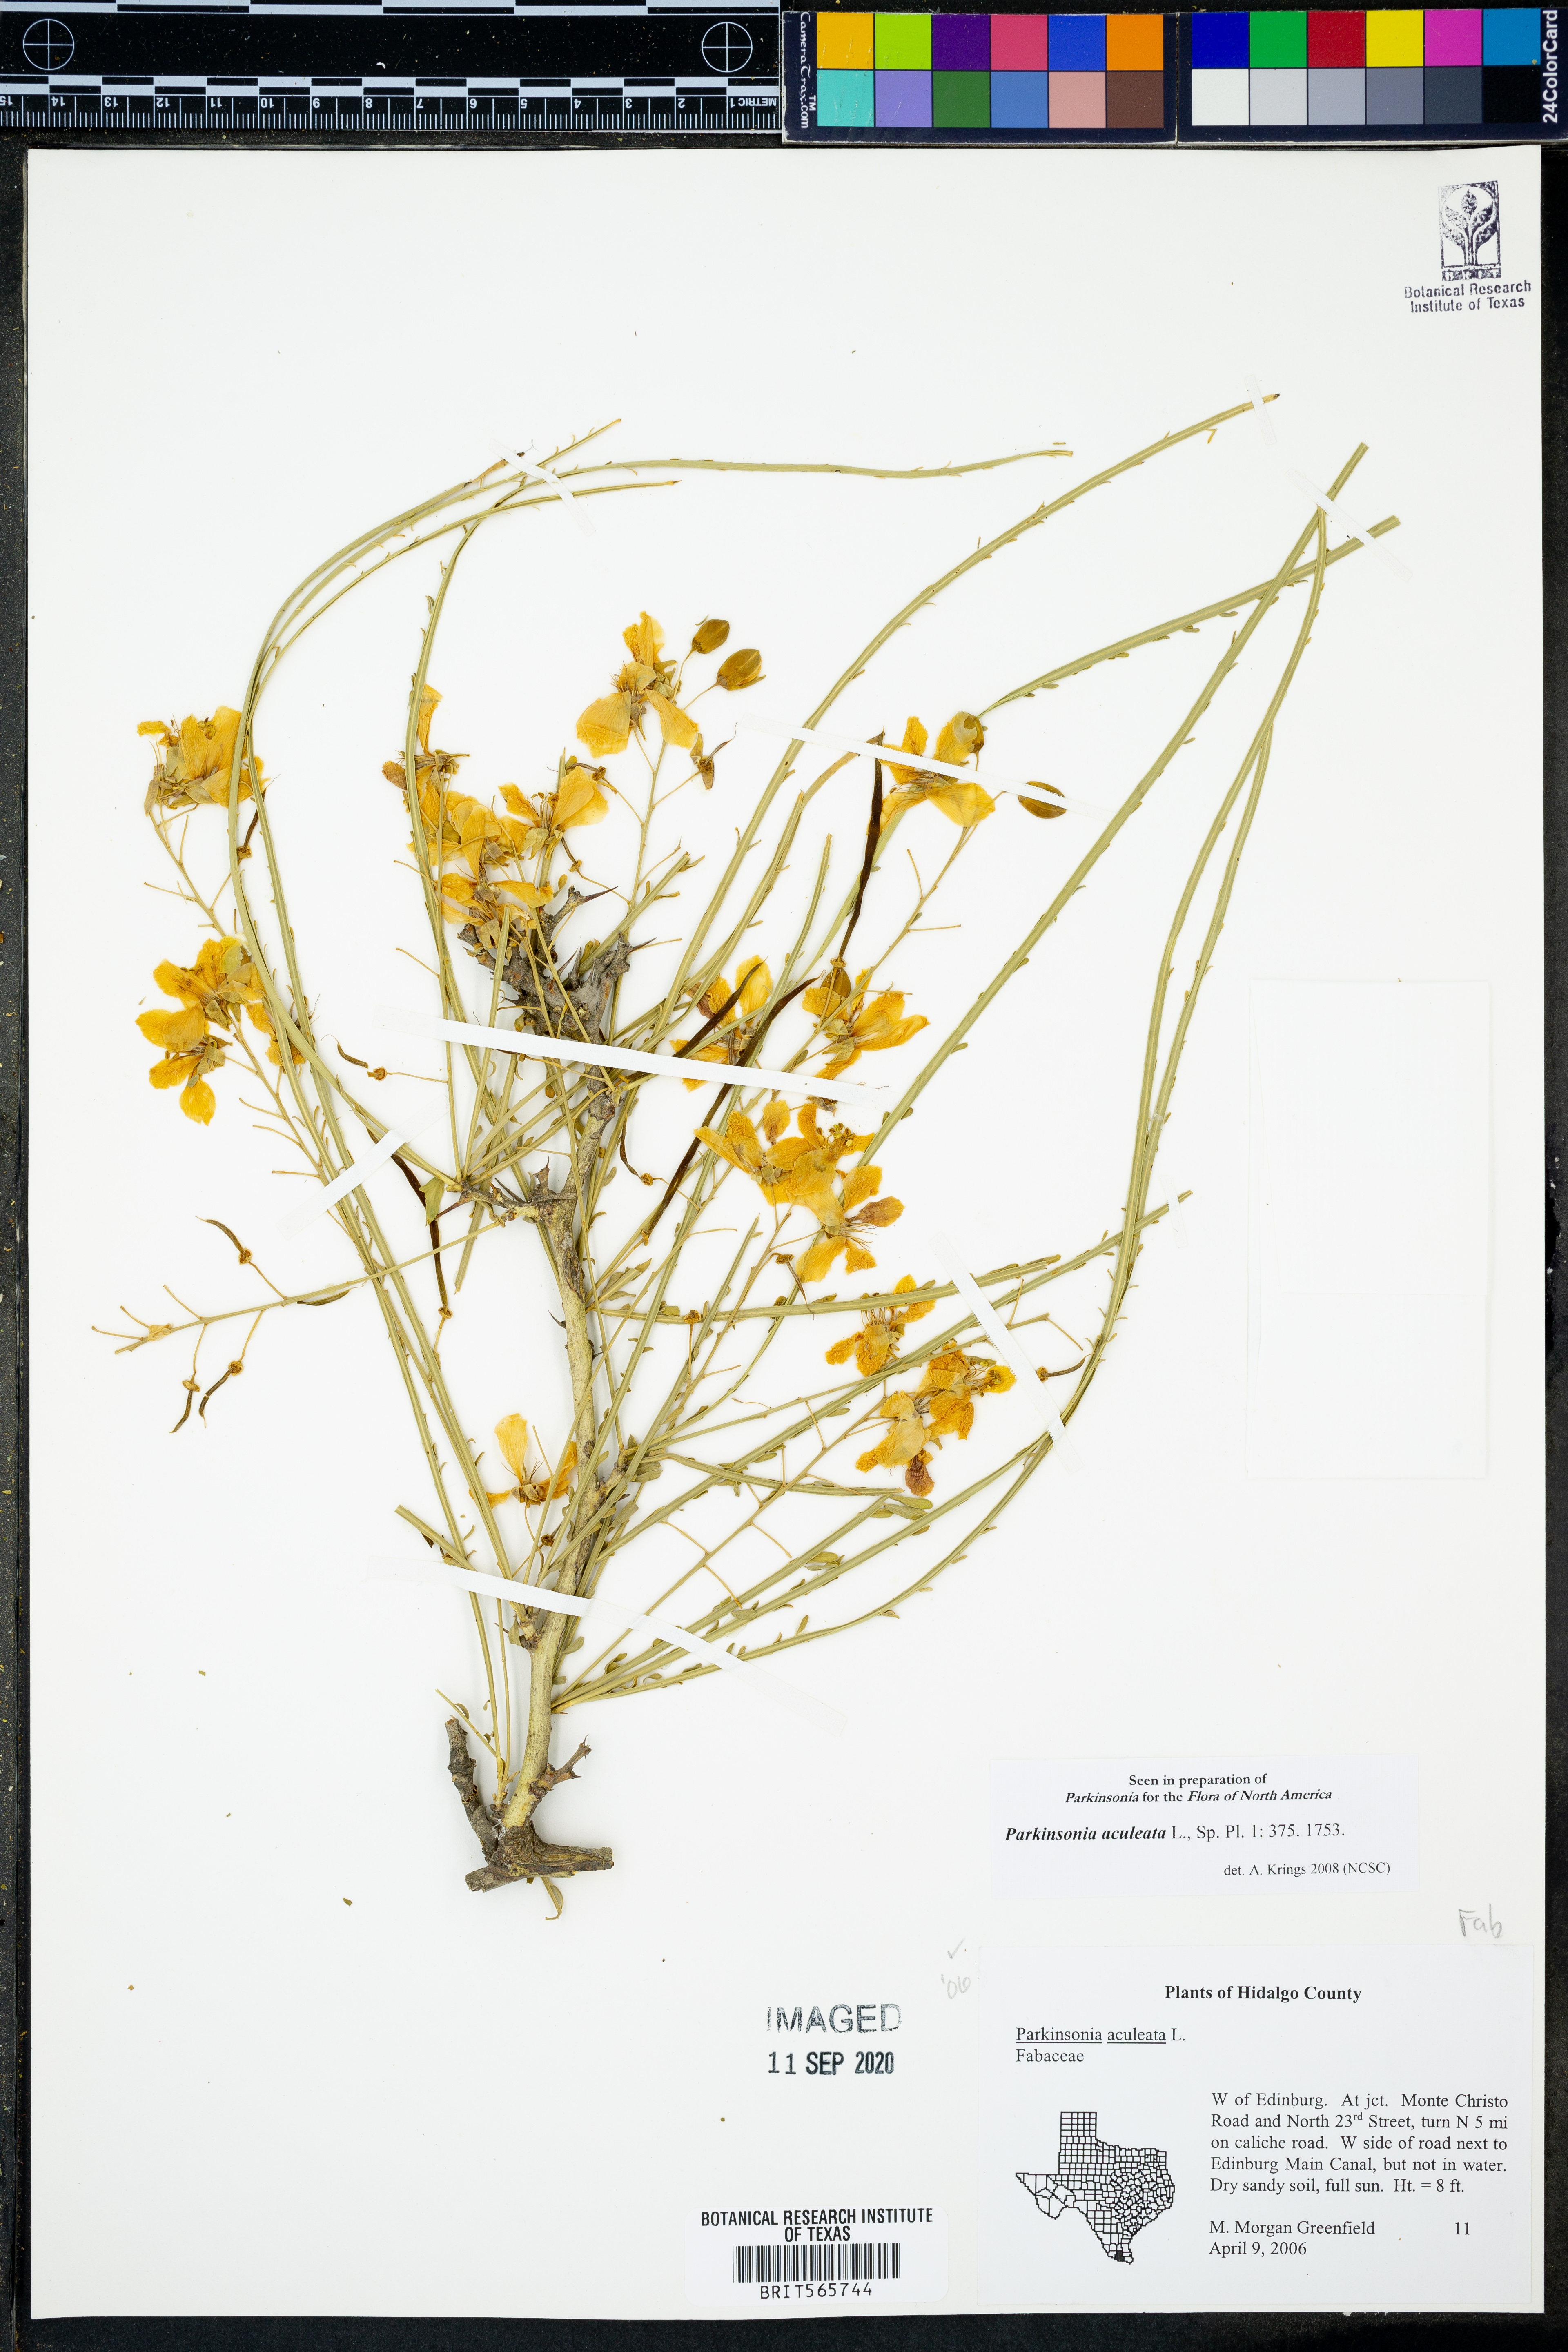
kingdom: Plantae
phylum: Tracheophyta
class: Magnoliopsida
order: Fabales
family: Fabaceae
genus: Parkinsonia
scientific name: Parkinsonia aculeata
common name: Jerusalem thorn
